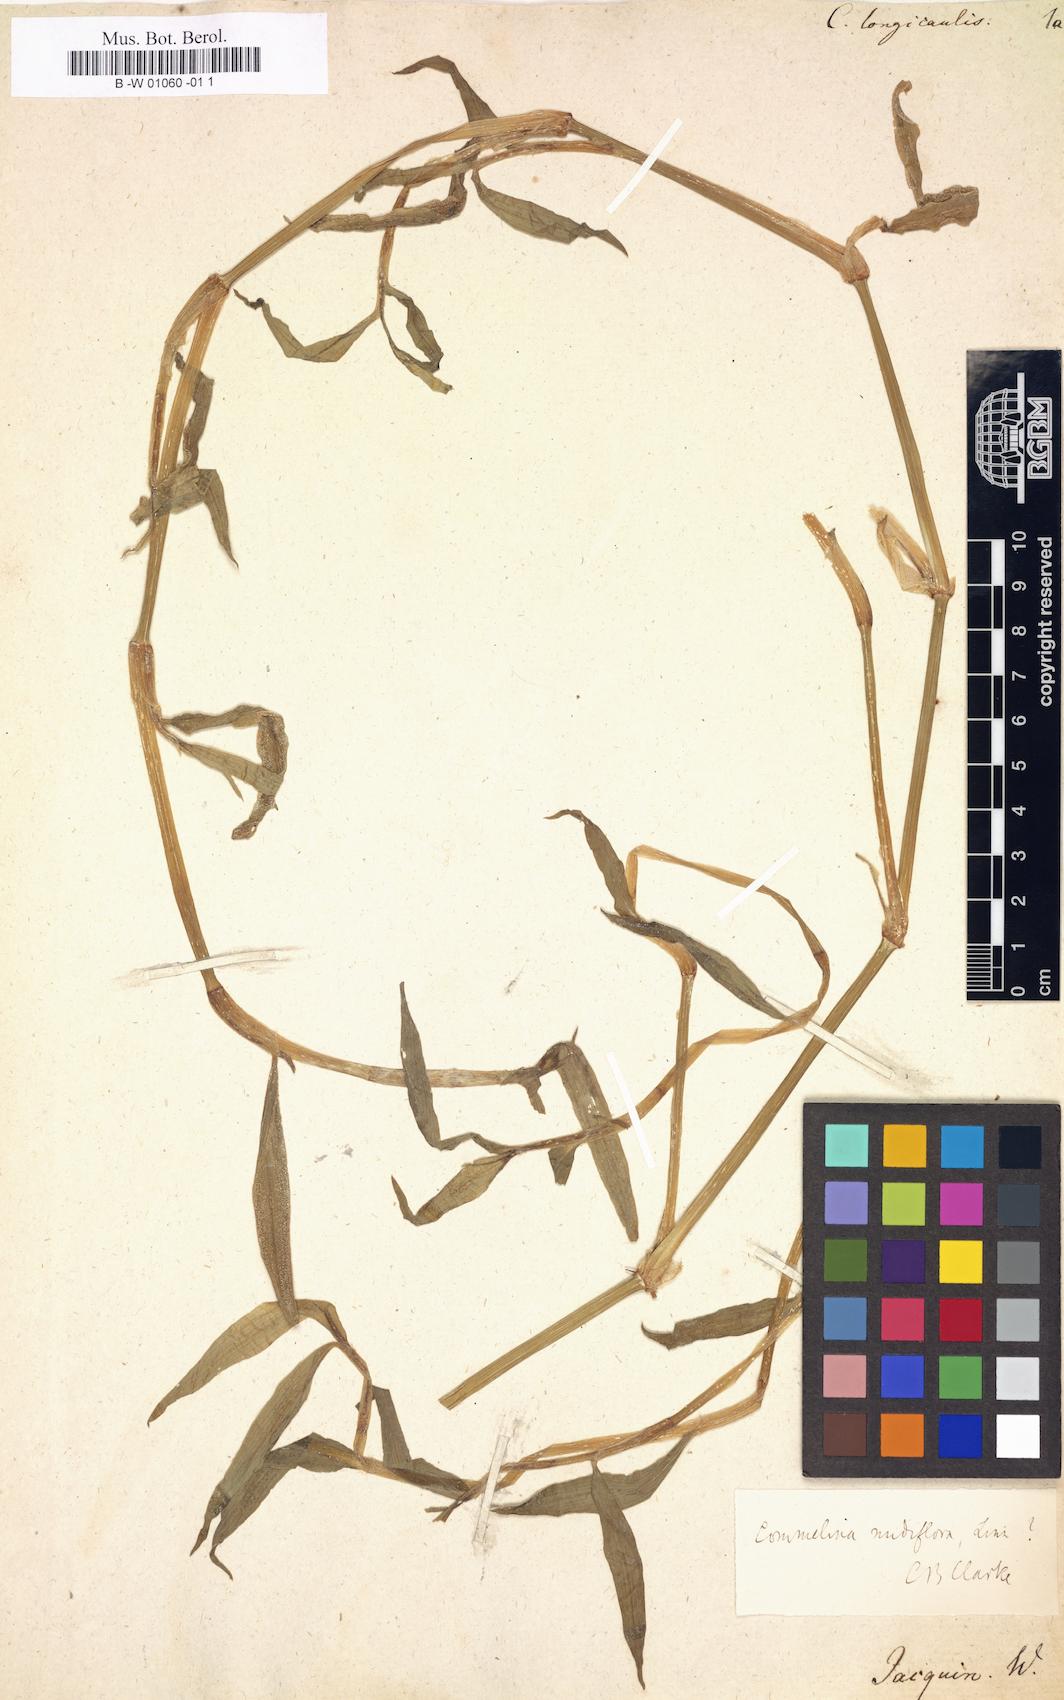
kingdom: Plantae
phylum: Tracheophyta
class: Liliopsida
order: Commelinales
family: Commelinaceae
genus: Commelina
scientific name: Commelina longicaulis
